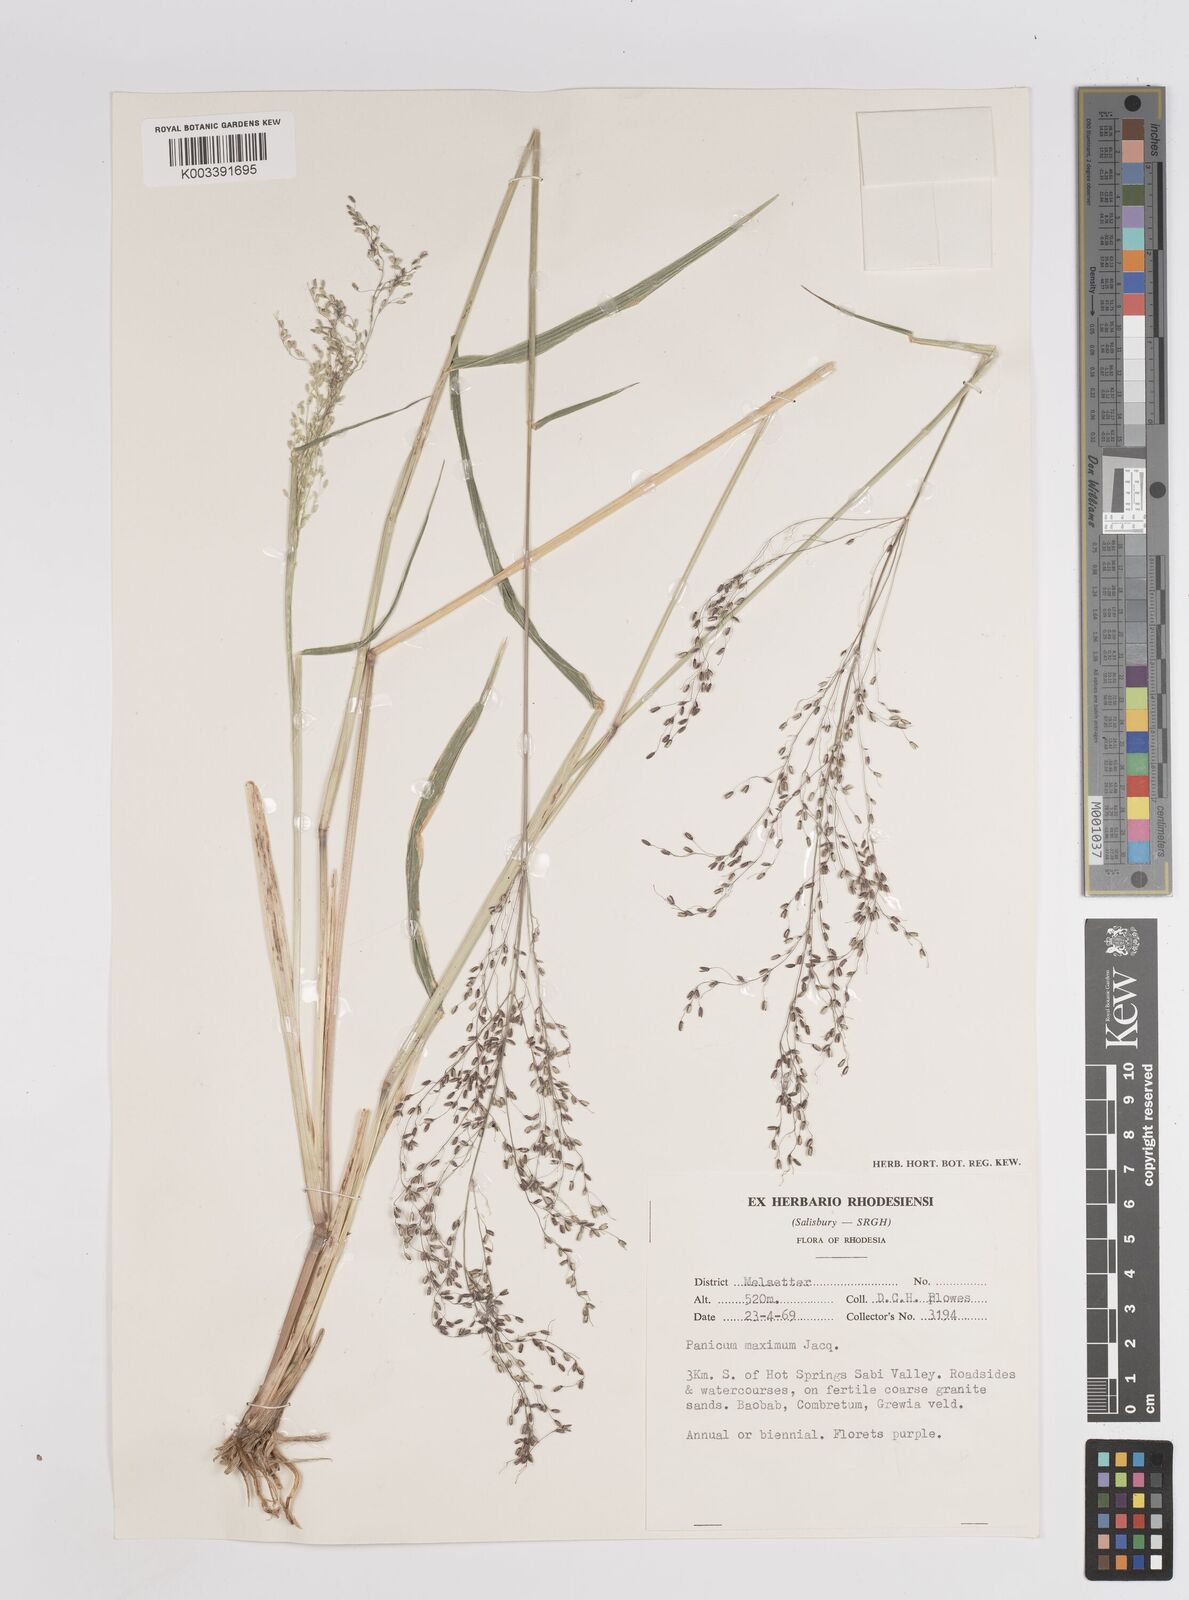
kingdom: Plantae
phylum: Tracheophyta
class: Liliopsida
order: Poales
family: Poaceae
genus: Megathyrsus
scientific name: Megathyrsus maximus
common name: Guineagrass
